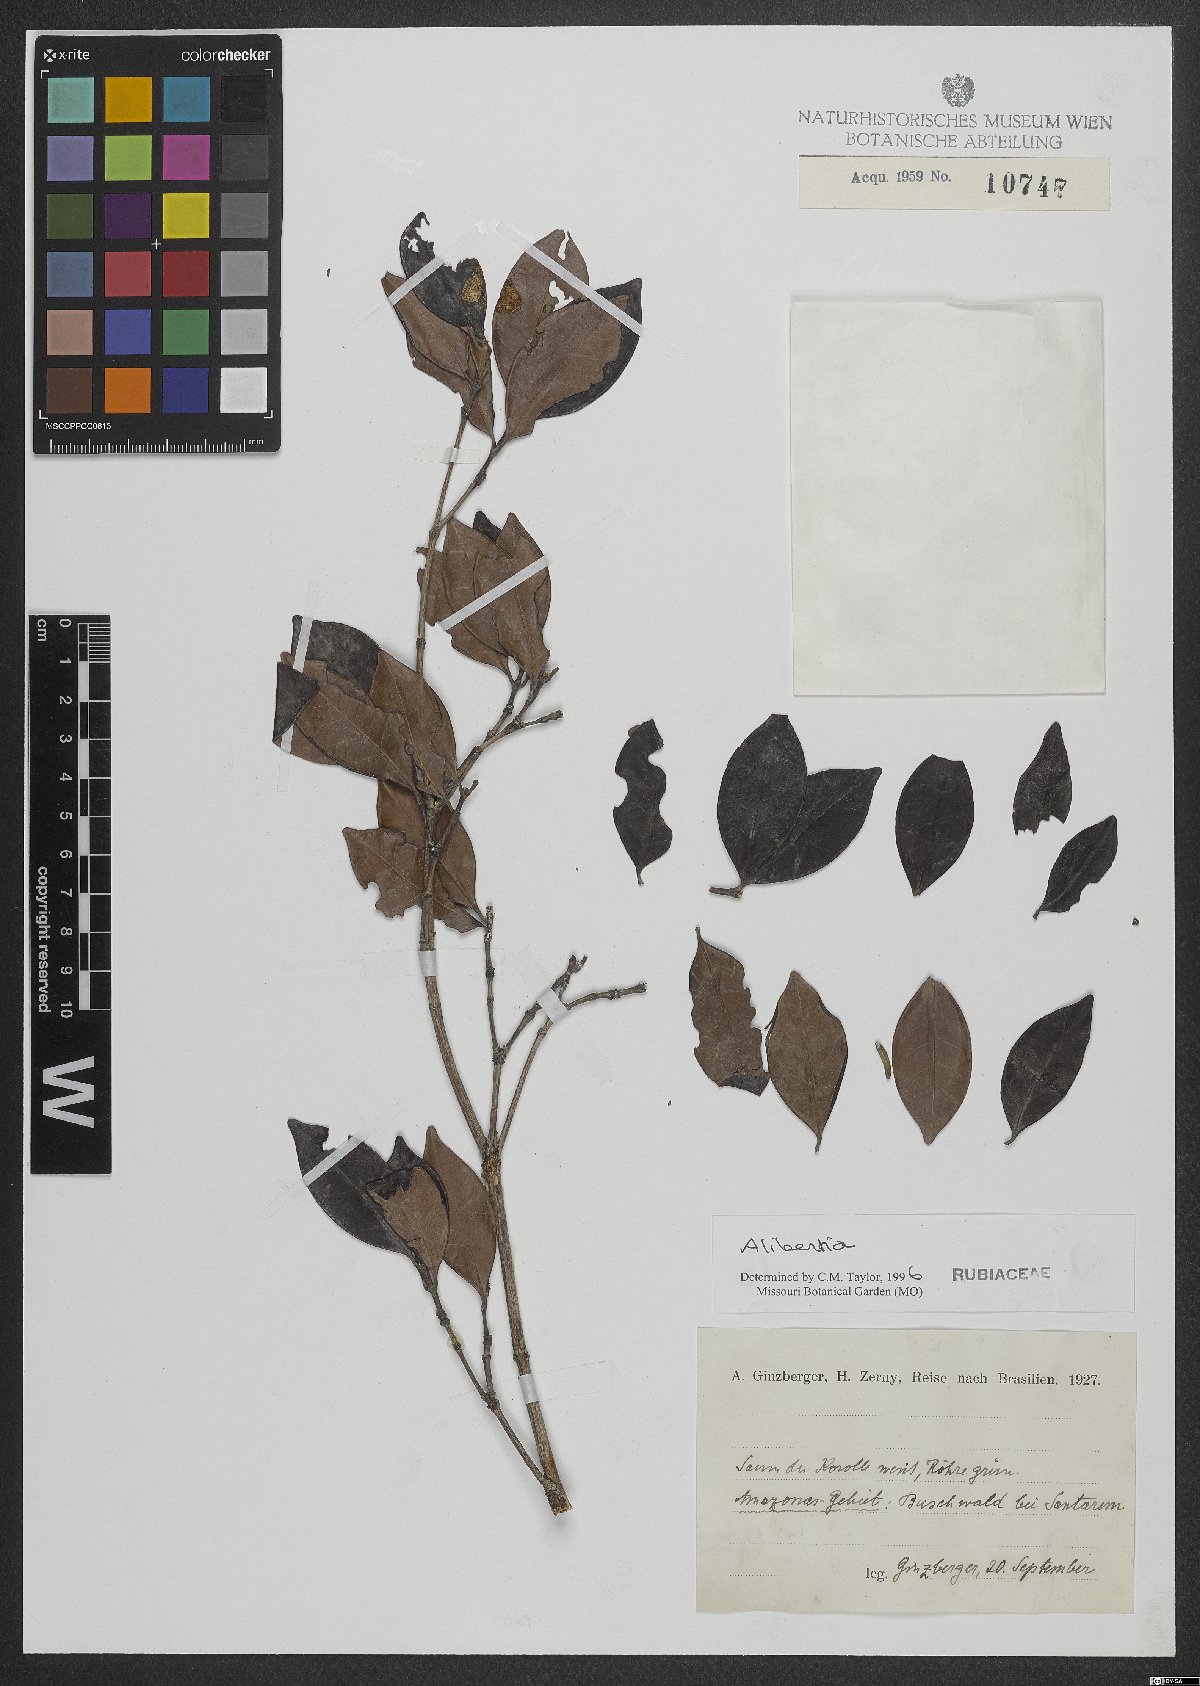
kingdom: Plantae
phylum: Tracheophyta
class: Magnoliopsida
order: Gentianales
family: Rubiaceae
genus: Alibertia
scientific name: Alibertia
